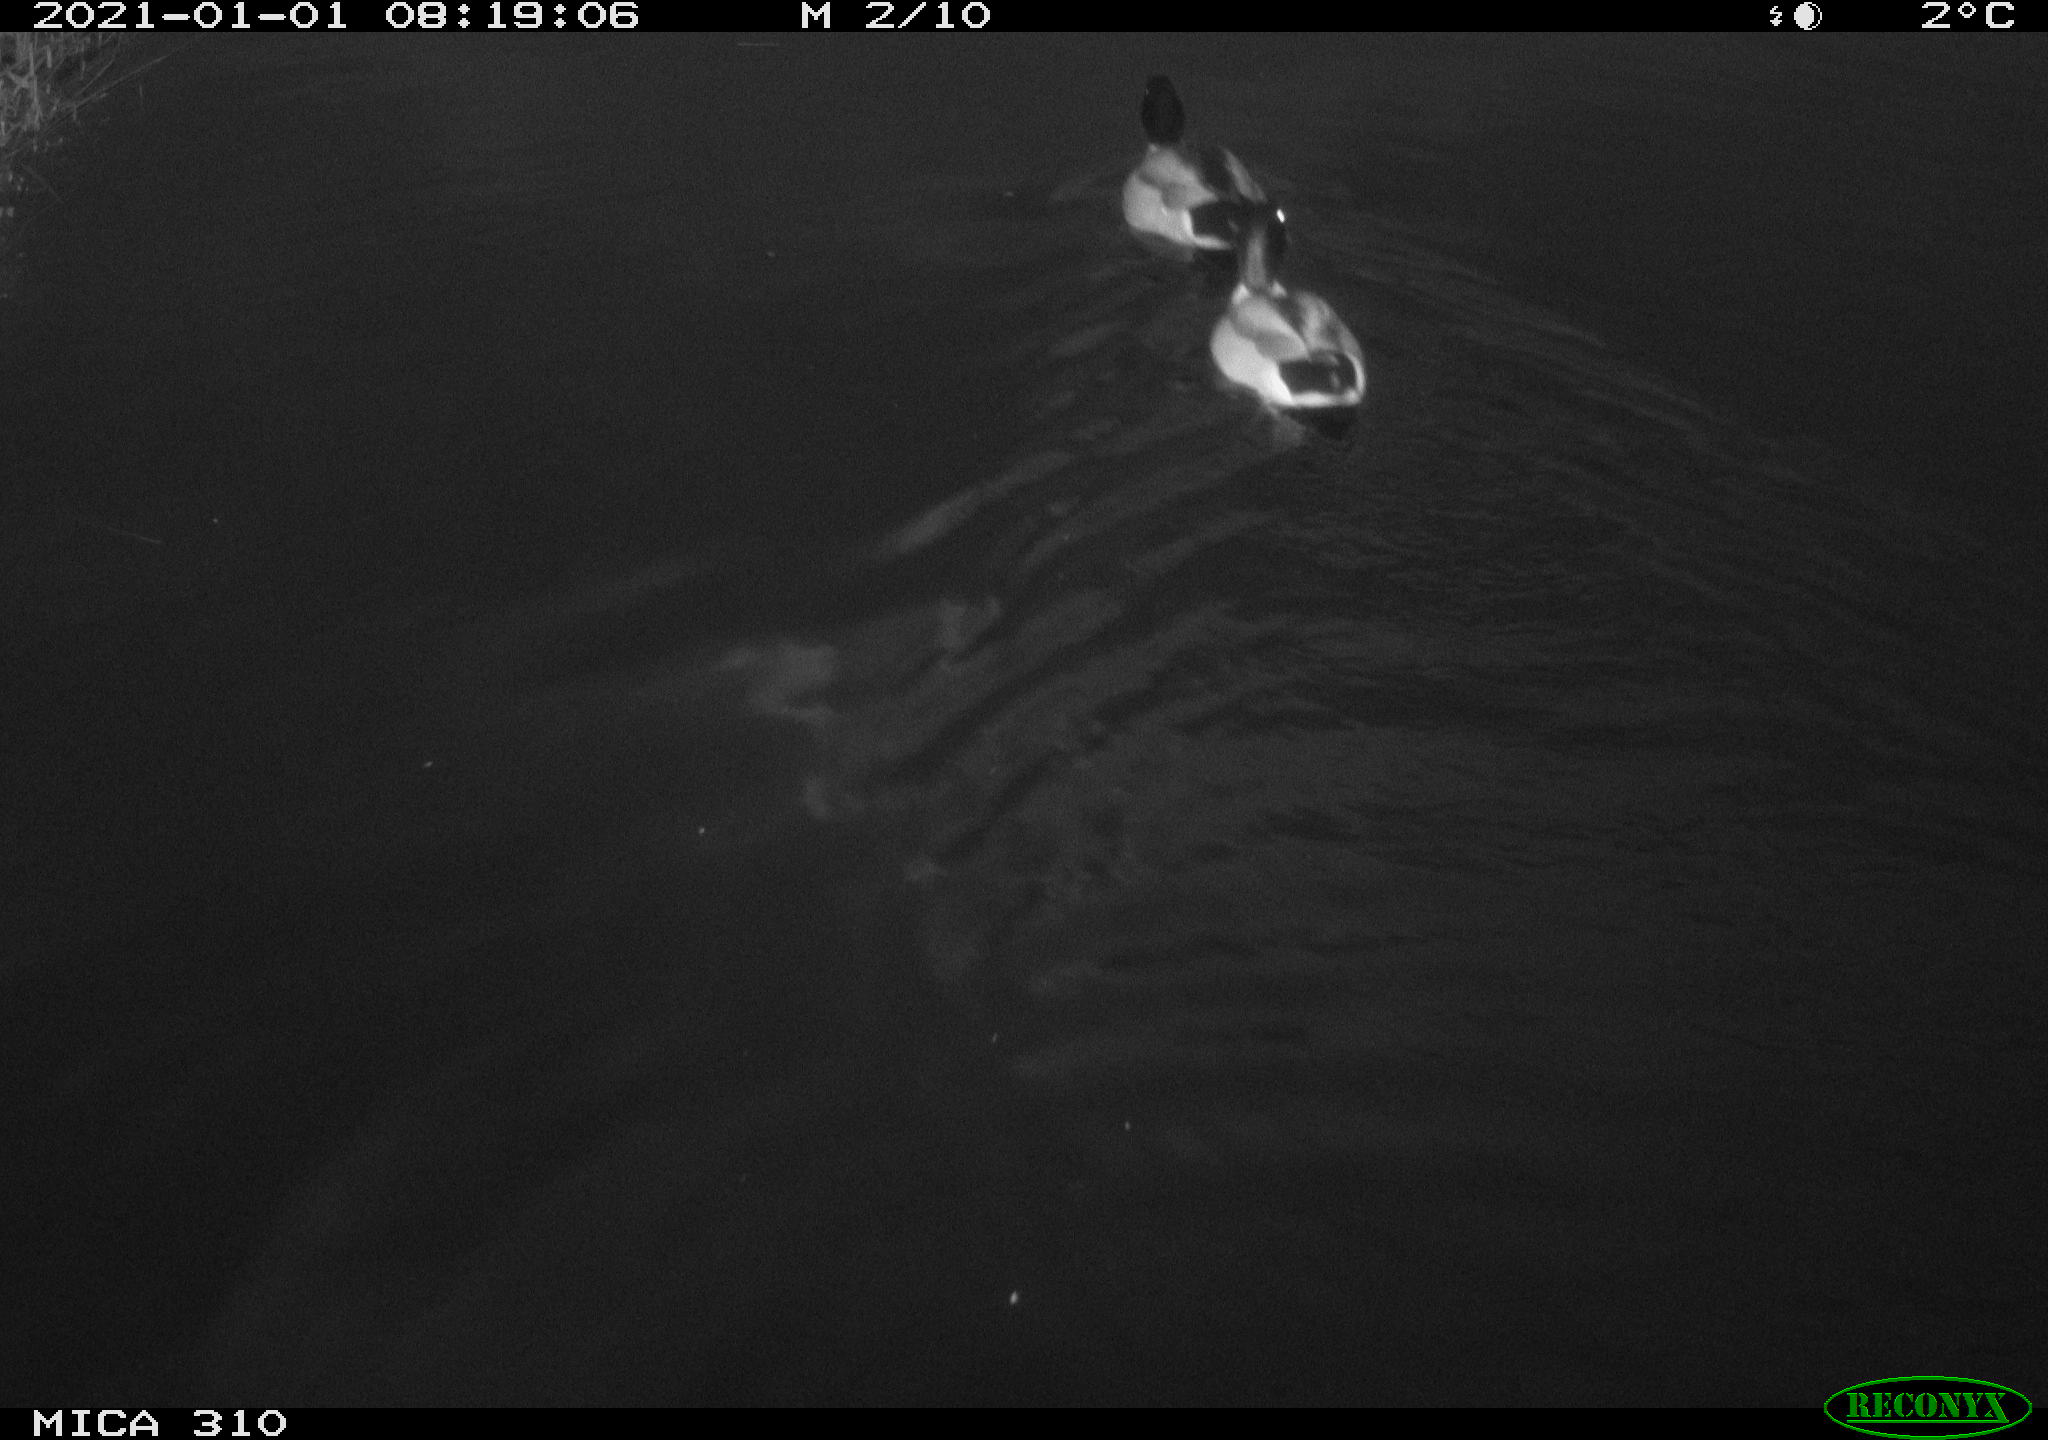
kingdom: Animalia
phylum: Chordata
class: Aves
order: Anseriformes
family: Anatidae
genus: Anas
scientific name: Anas platyrhynchos
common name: Mallard
